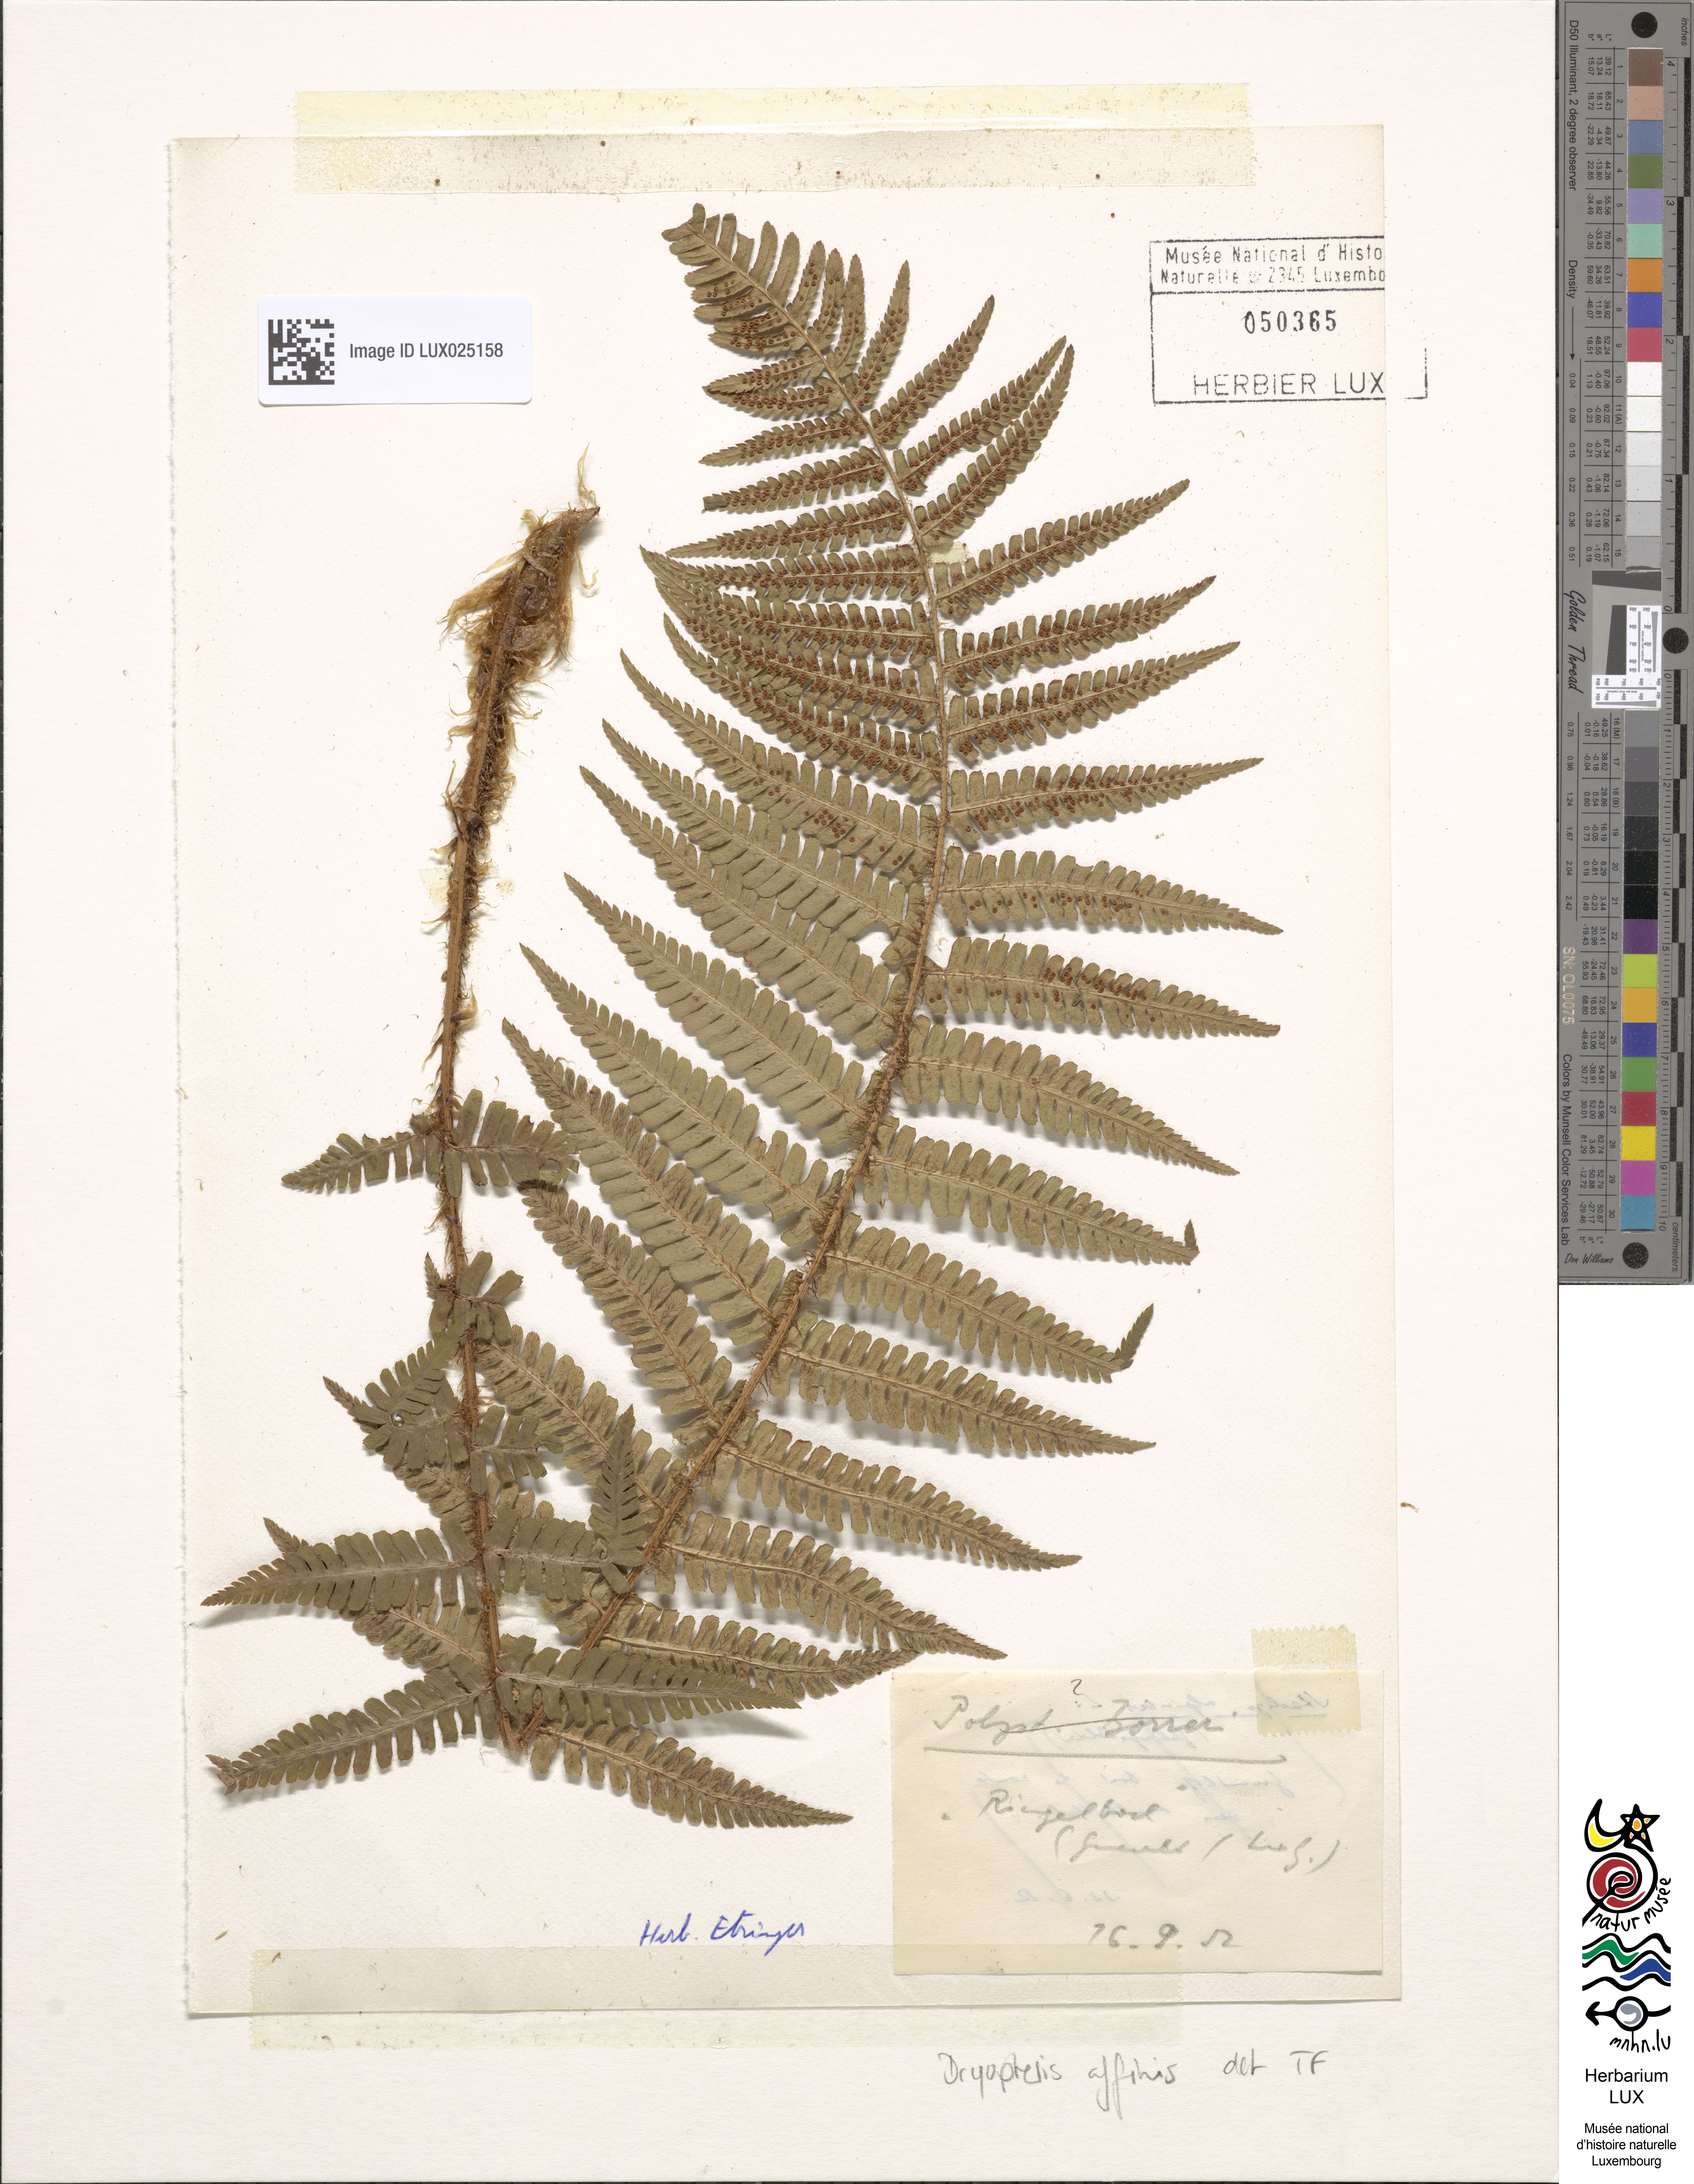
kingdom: Plantae
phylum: Tracheophyta
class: Polypodiopsida
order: Polypodiales
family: Dryopteridaceae
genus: Dryopteris
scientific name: Dryopteris affinis
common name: Scaly male fern
